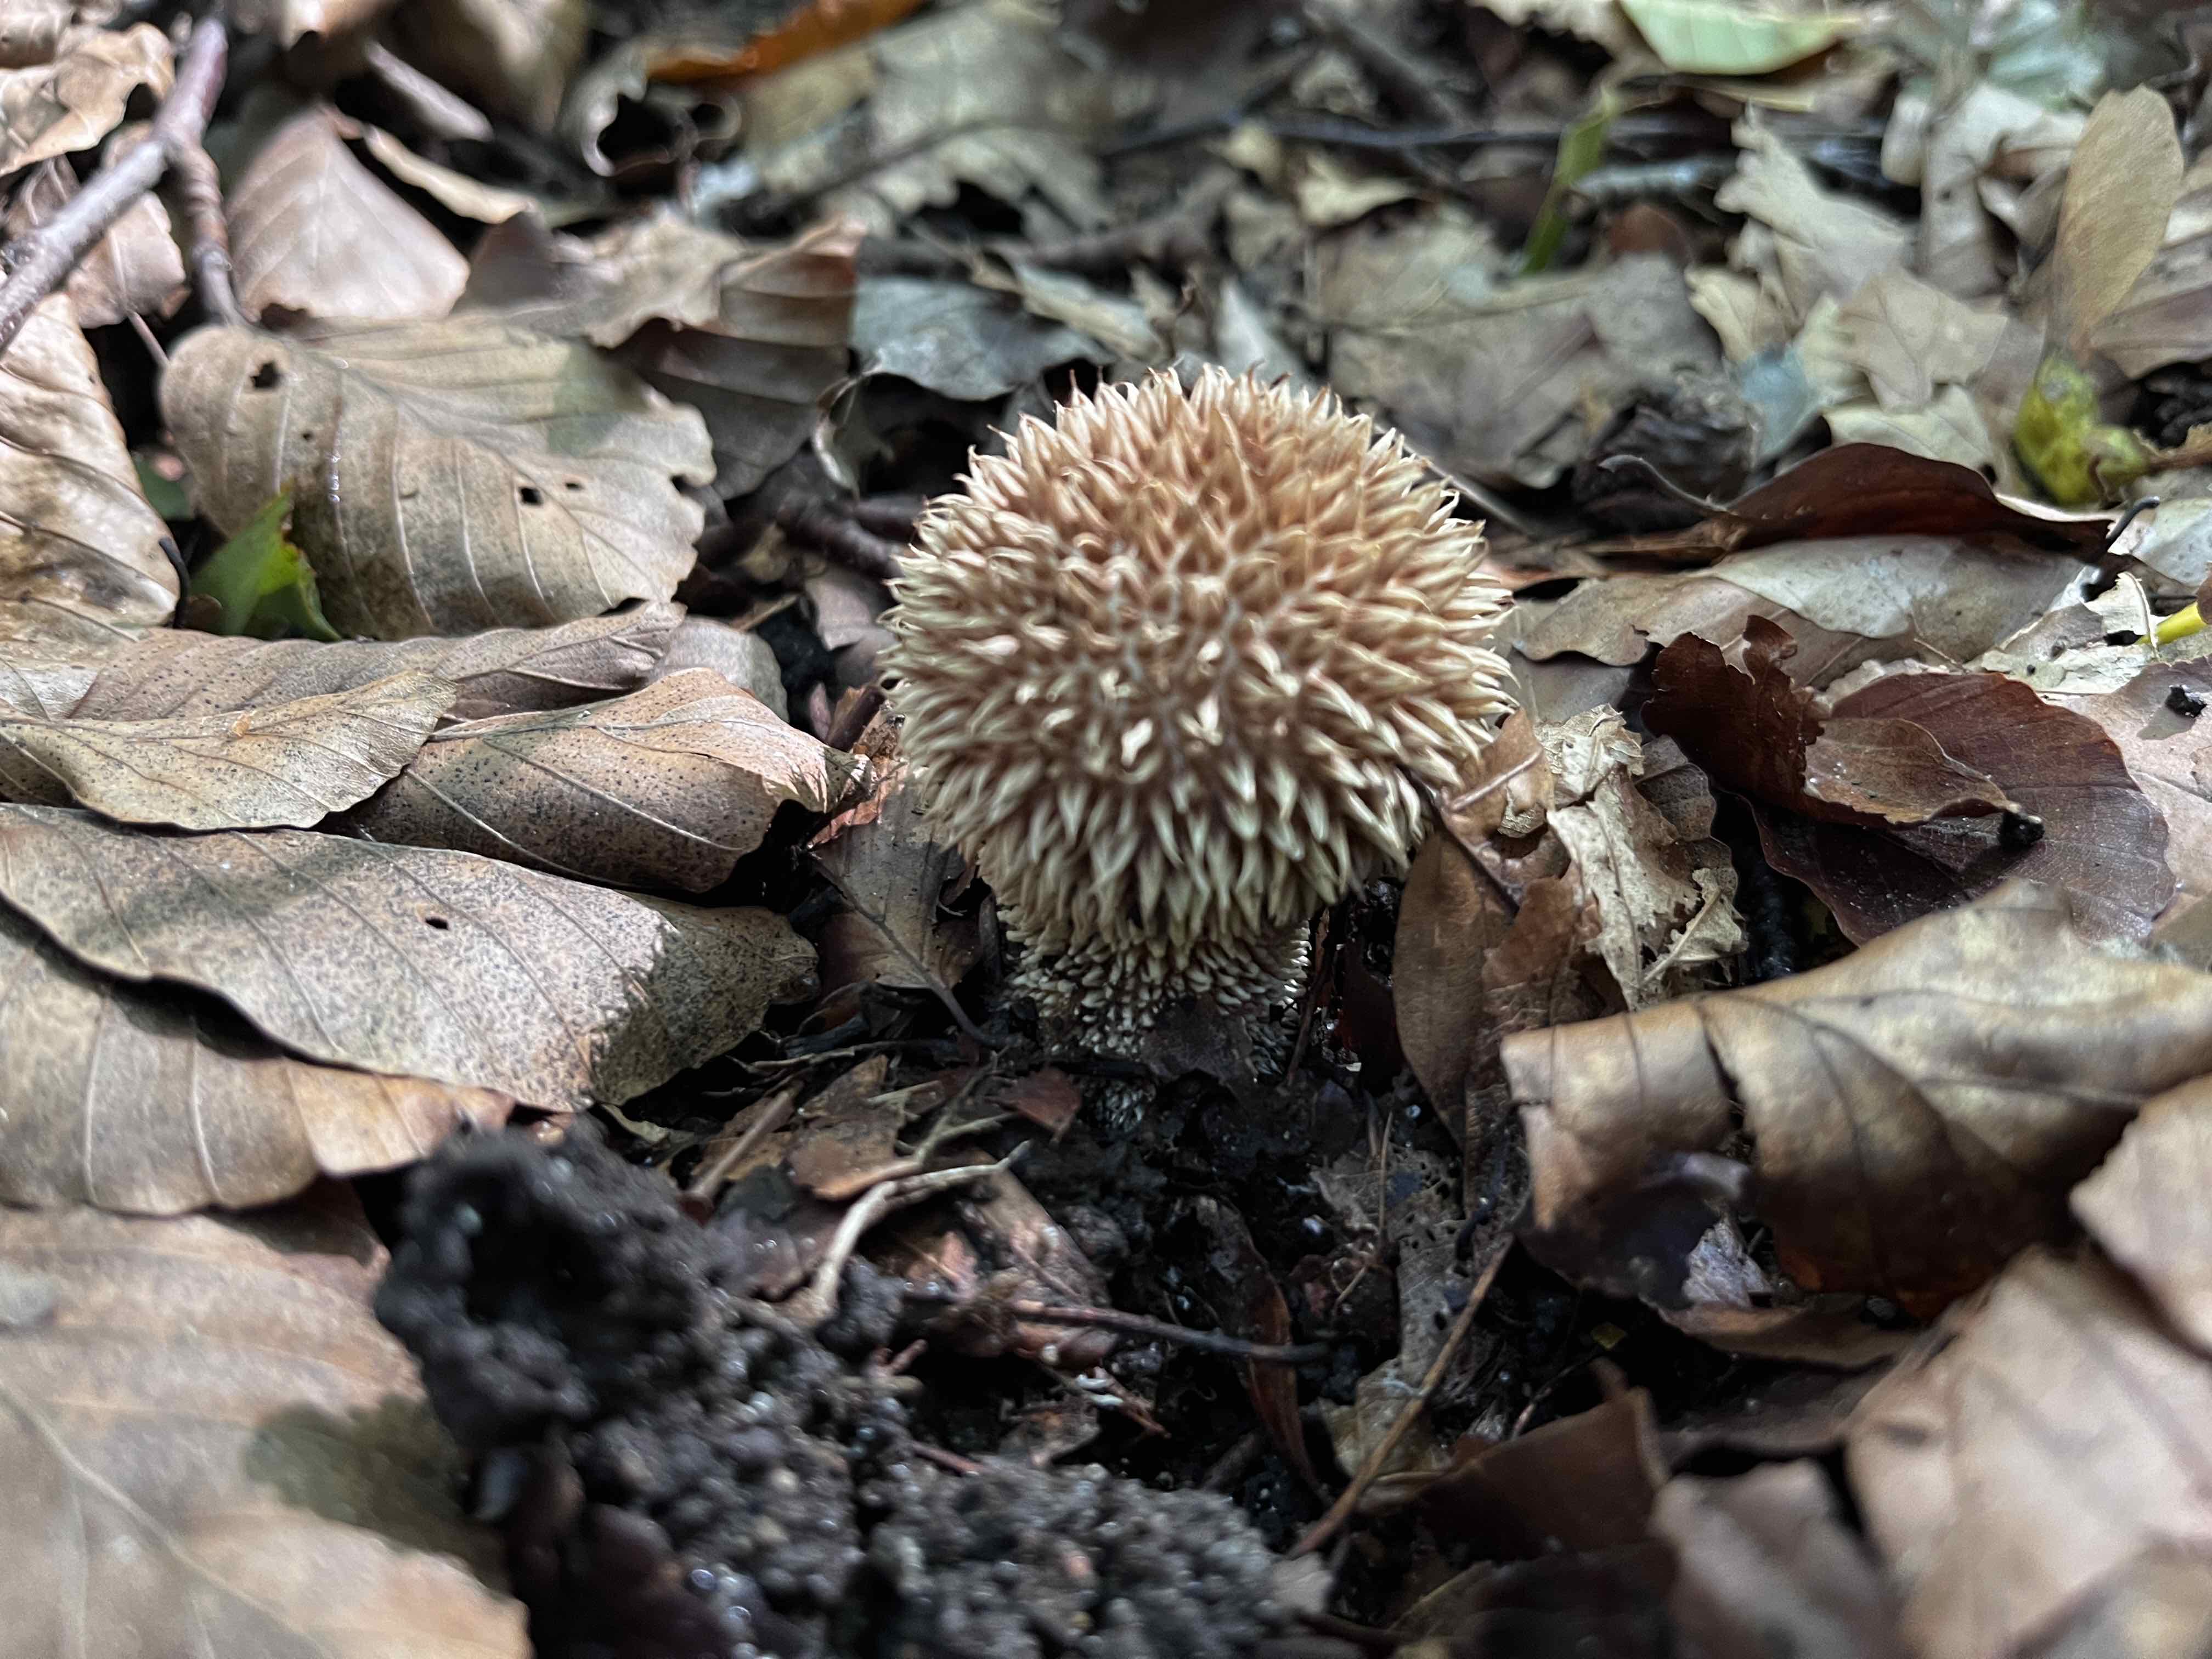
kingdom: Fungi
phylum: Basidiomycota
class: Agaricomycetes
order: Agaricales
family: Lycoperdaceae
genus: Lycoperdon
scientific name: Lycoperdon echinatum
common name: pindsvine-støvbold
